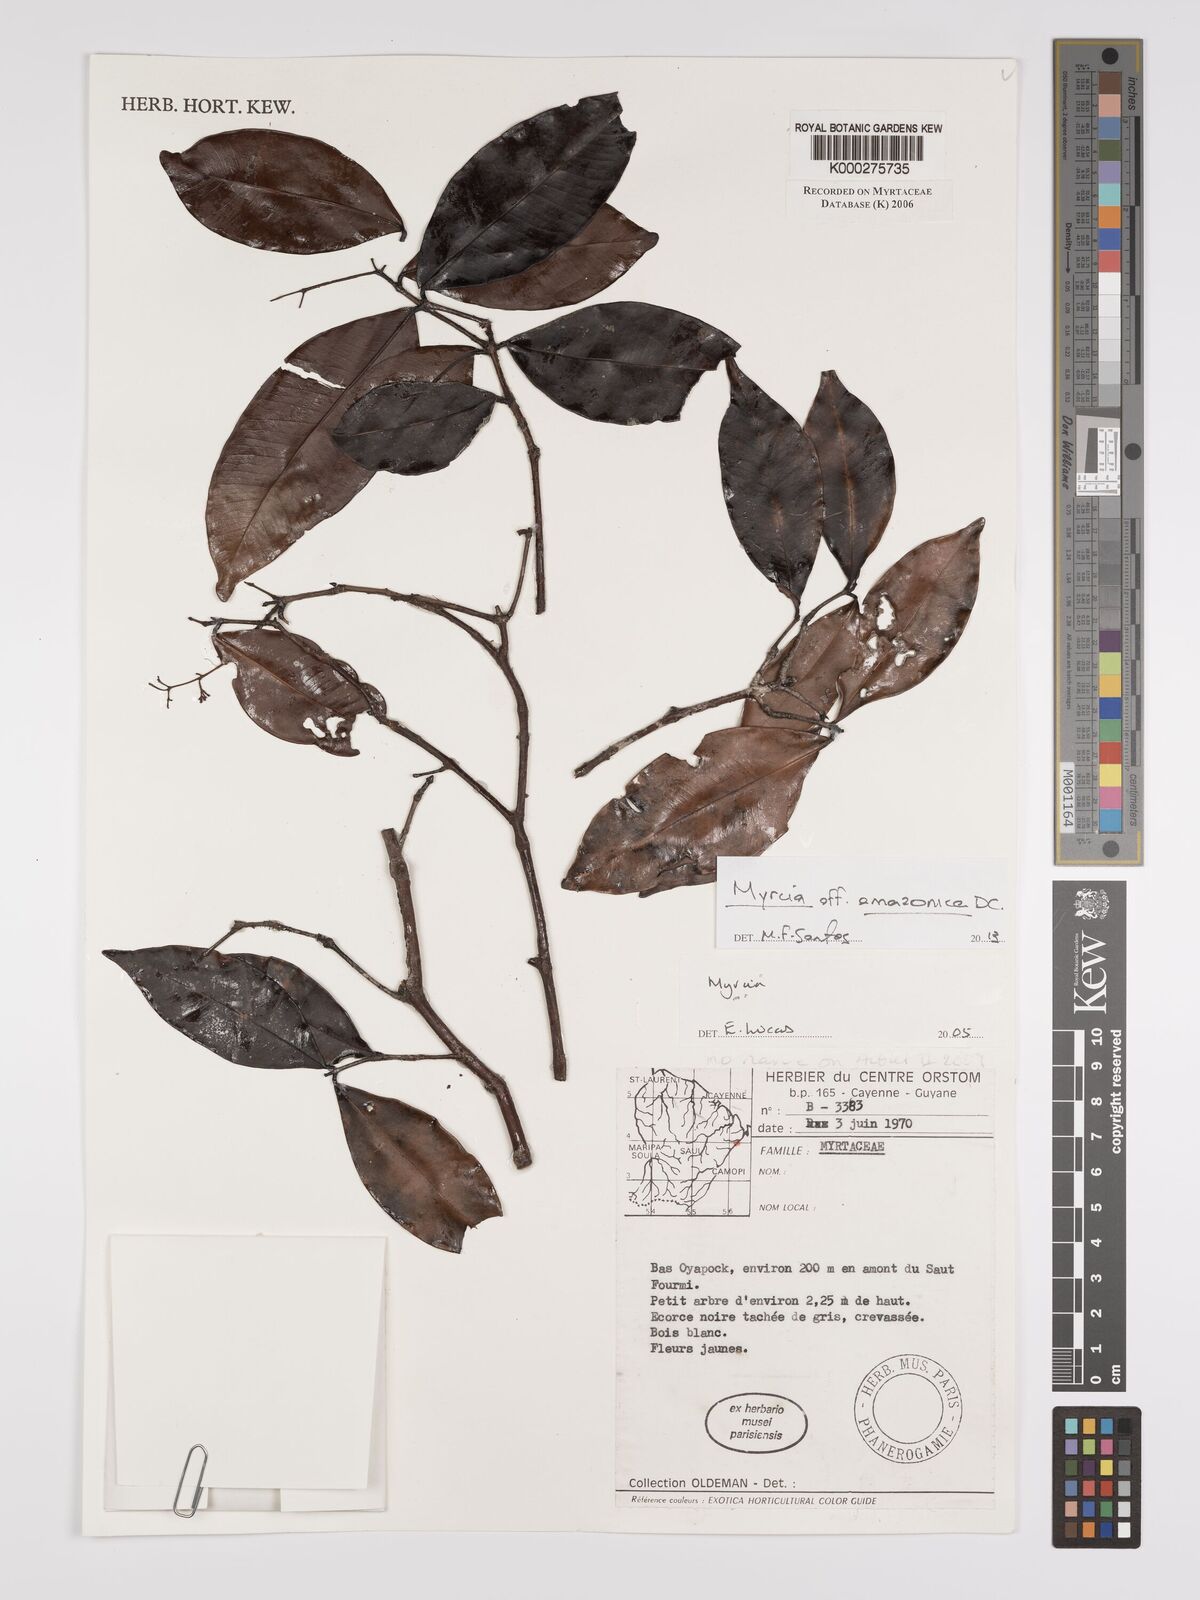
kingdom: Plantae
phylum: Tracheophyta
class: Magnoliopsida
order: Myrtales
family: Myrtaceae
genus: Myrcia
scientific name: Myrcia
